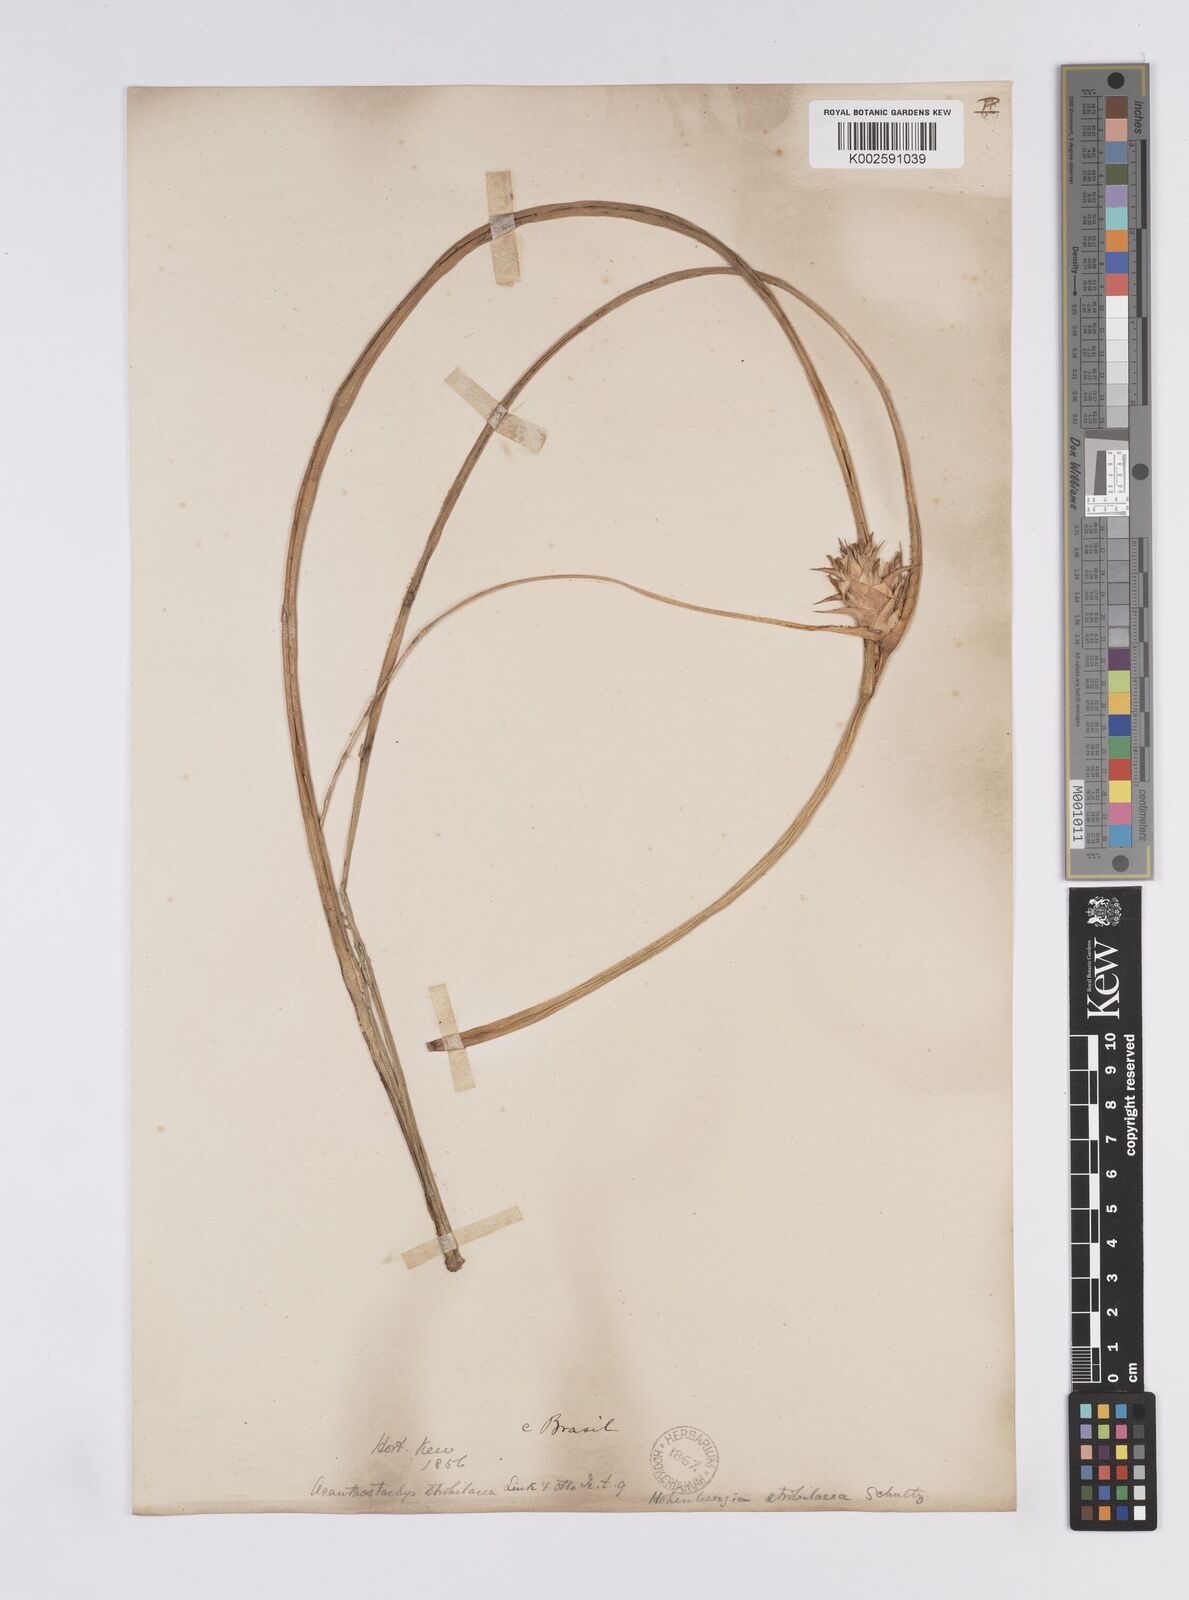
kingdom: Plantae
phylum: Tracheophyta
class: Liliopsida
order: Poales
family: Bromeliaceae
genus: Acanthostachys
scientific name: Acanthostachys strobilacea
